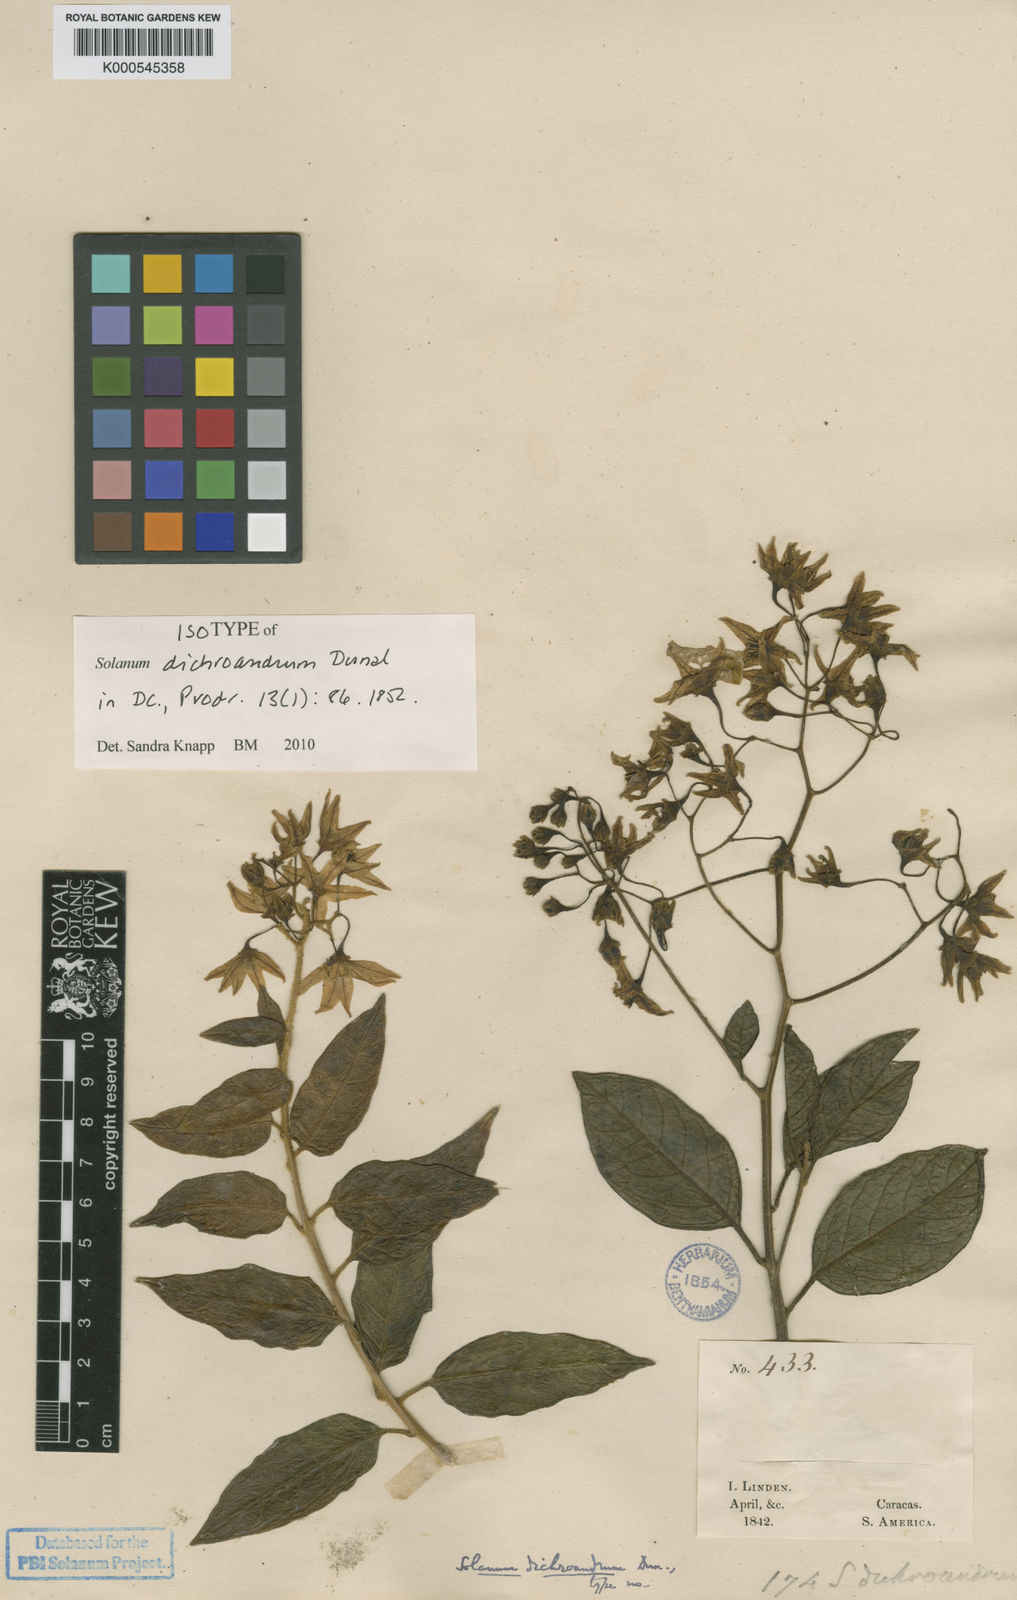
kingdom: Plantae
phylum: Tracheophyta
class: Magnoliopsida
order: Solanales
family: Solanaceae
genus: Solanum
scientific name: Solanum dichroandrum
